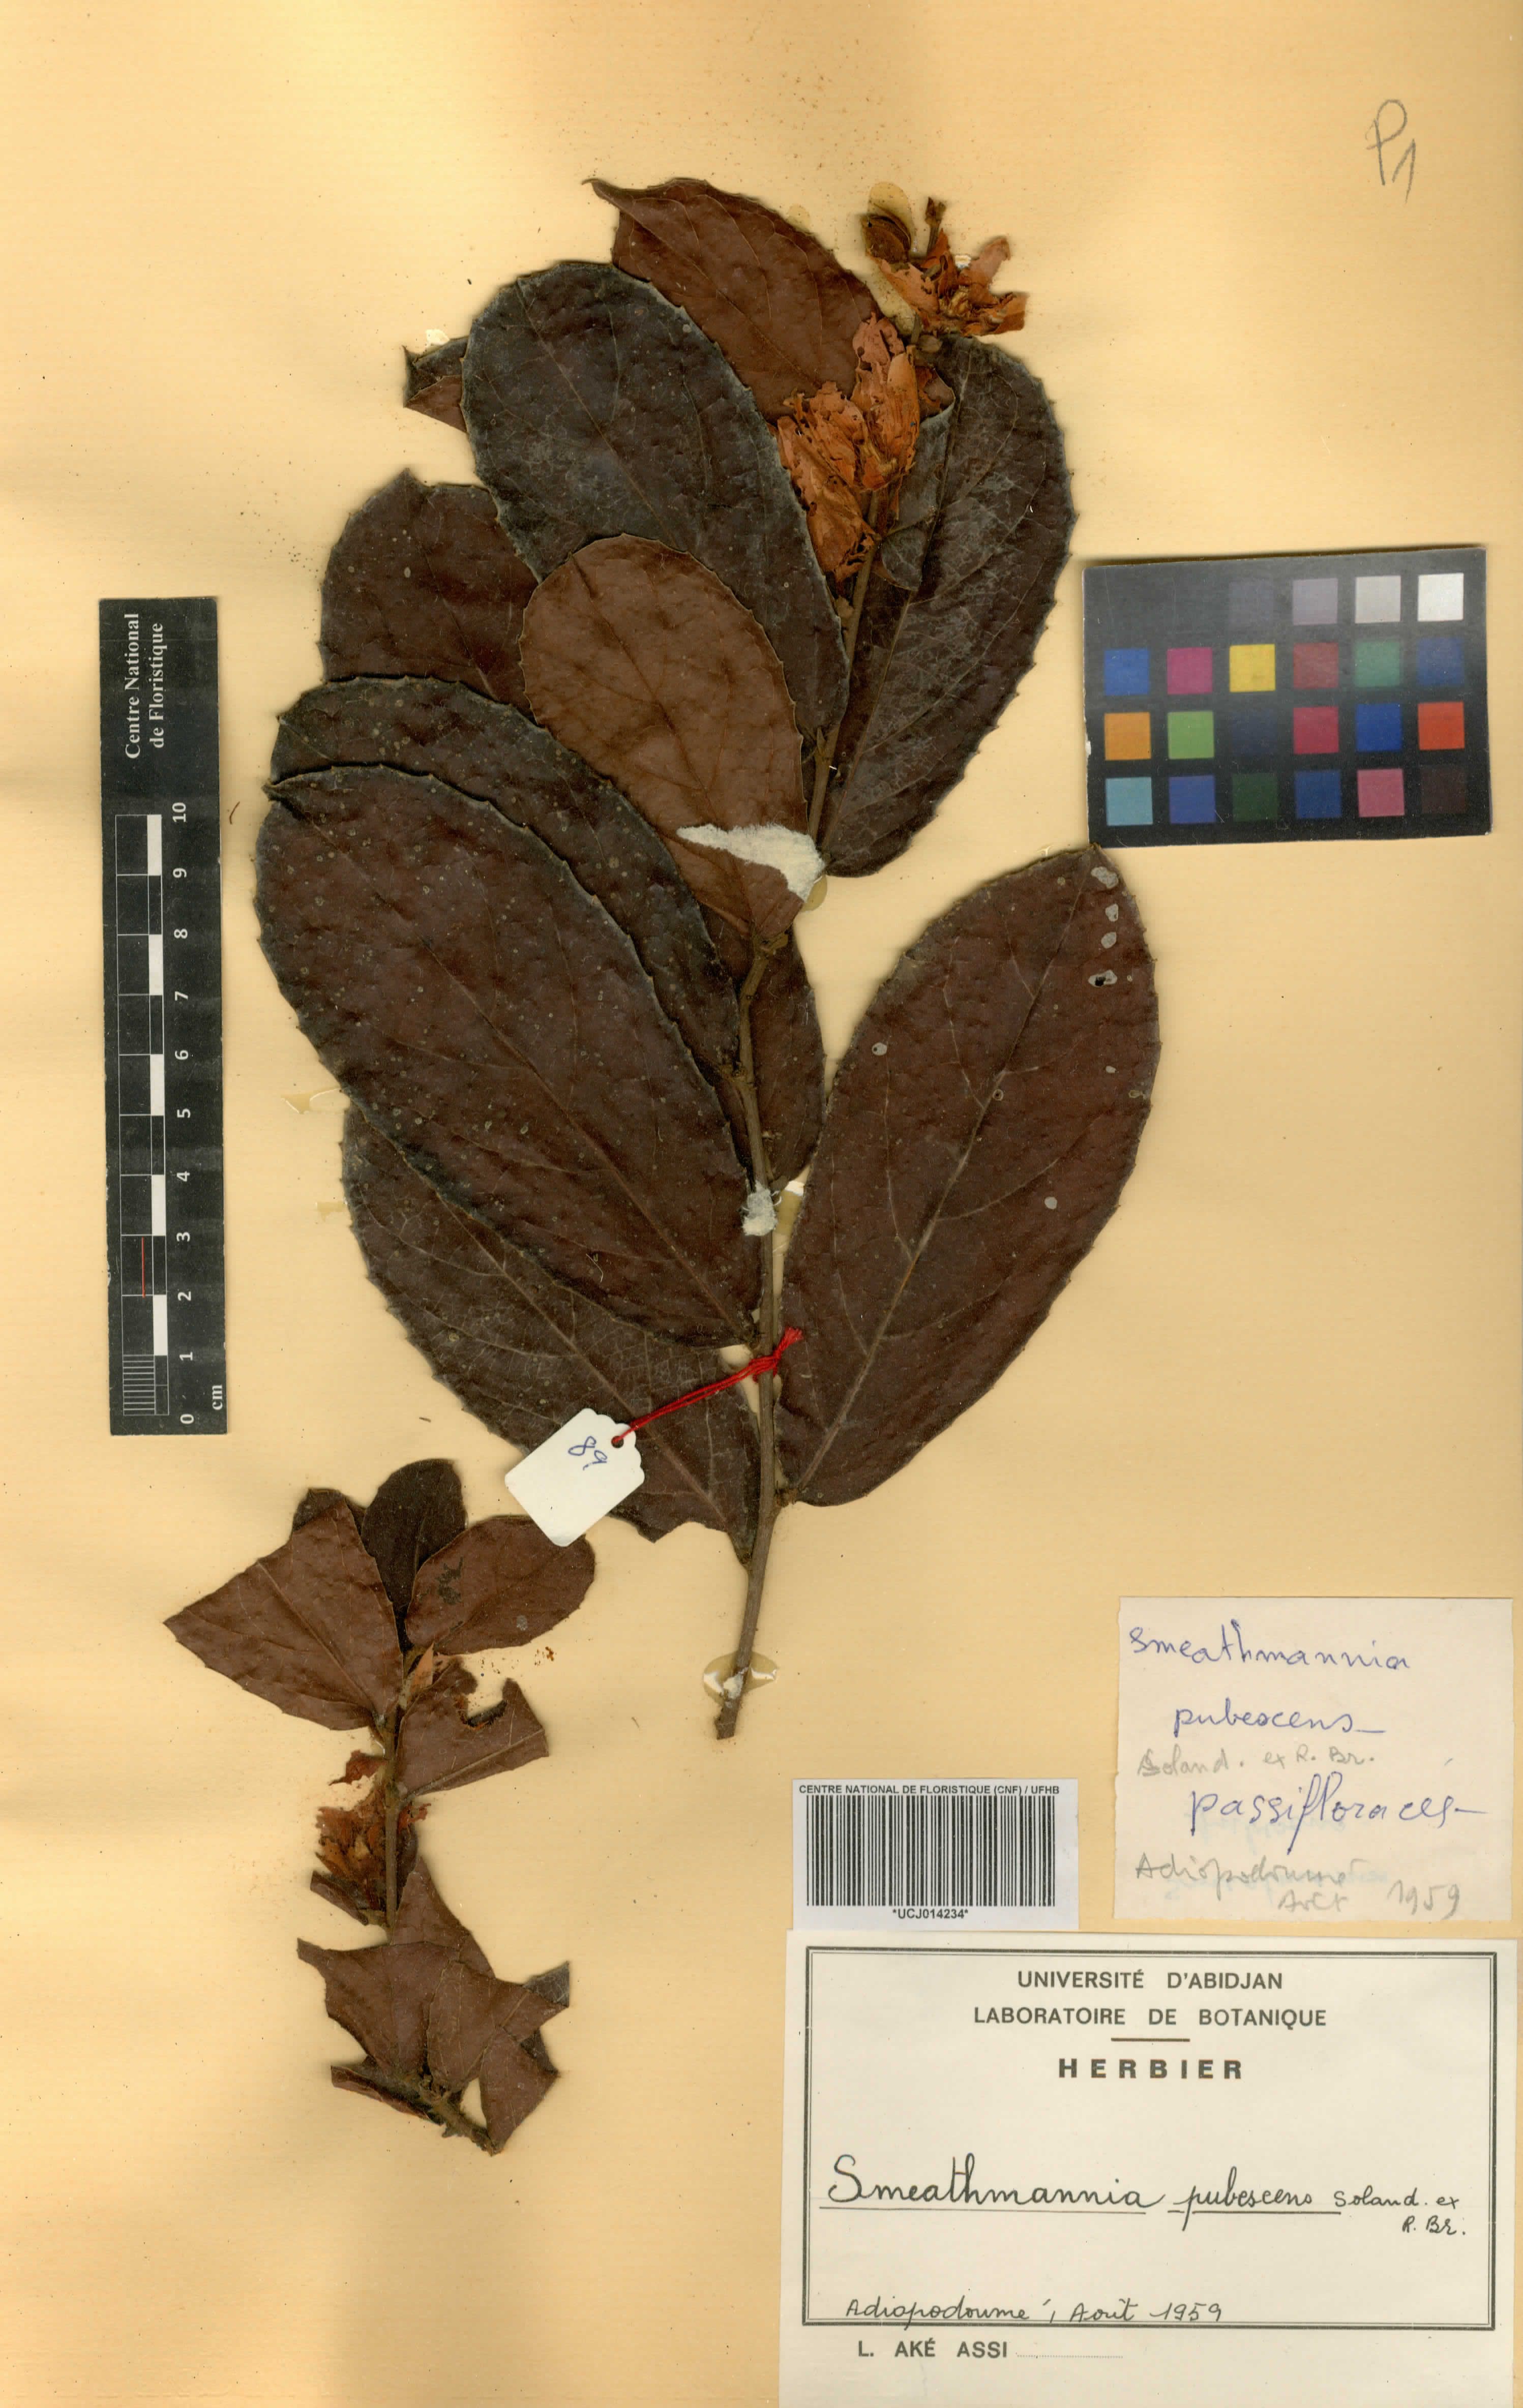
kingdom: Plantae
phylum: Tracheophyta
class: Magnoliopsida
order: Malpighiales
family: Passifloraceae
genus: Smeathmannia
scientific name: Smeathmannia pubescens
